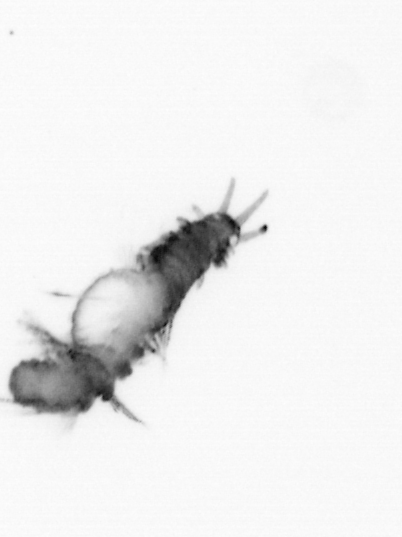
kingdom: Animalia
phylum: Annelida
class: Polychaeta
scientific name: Polychaeta
